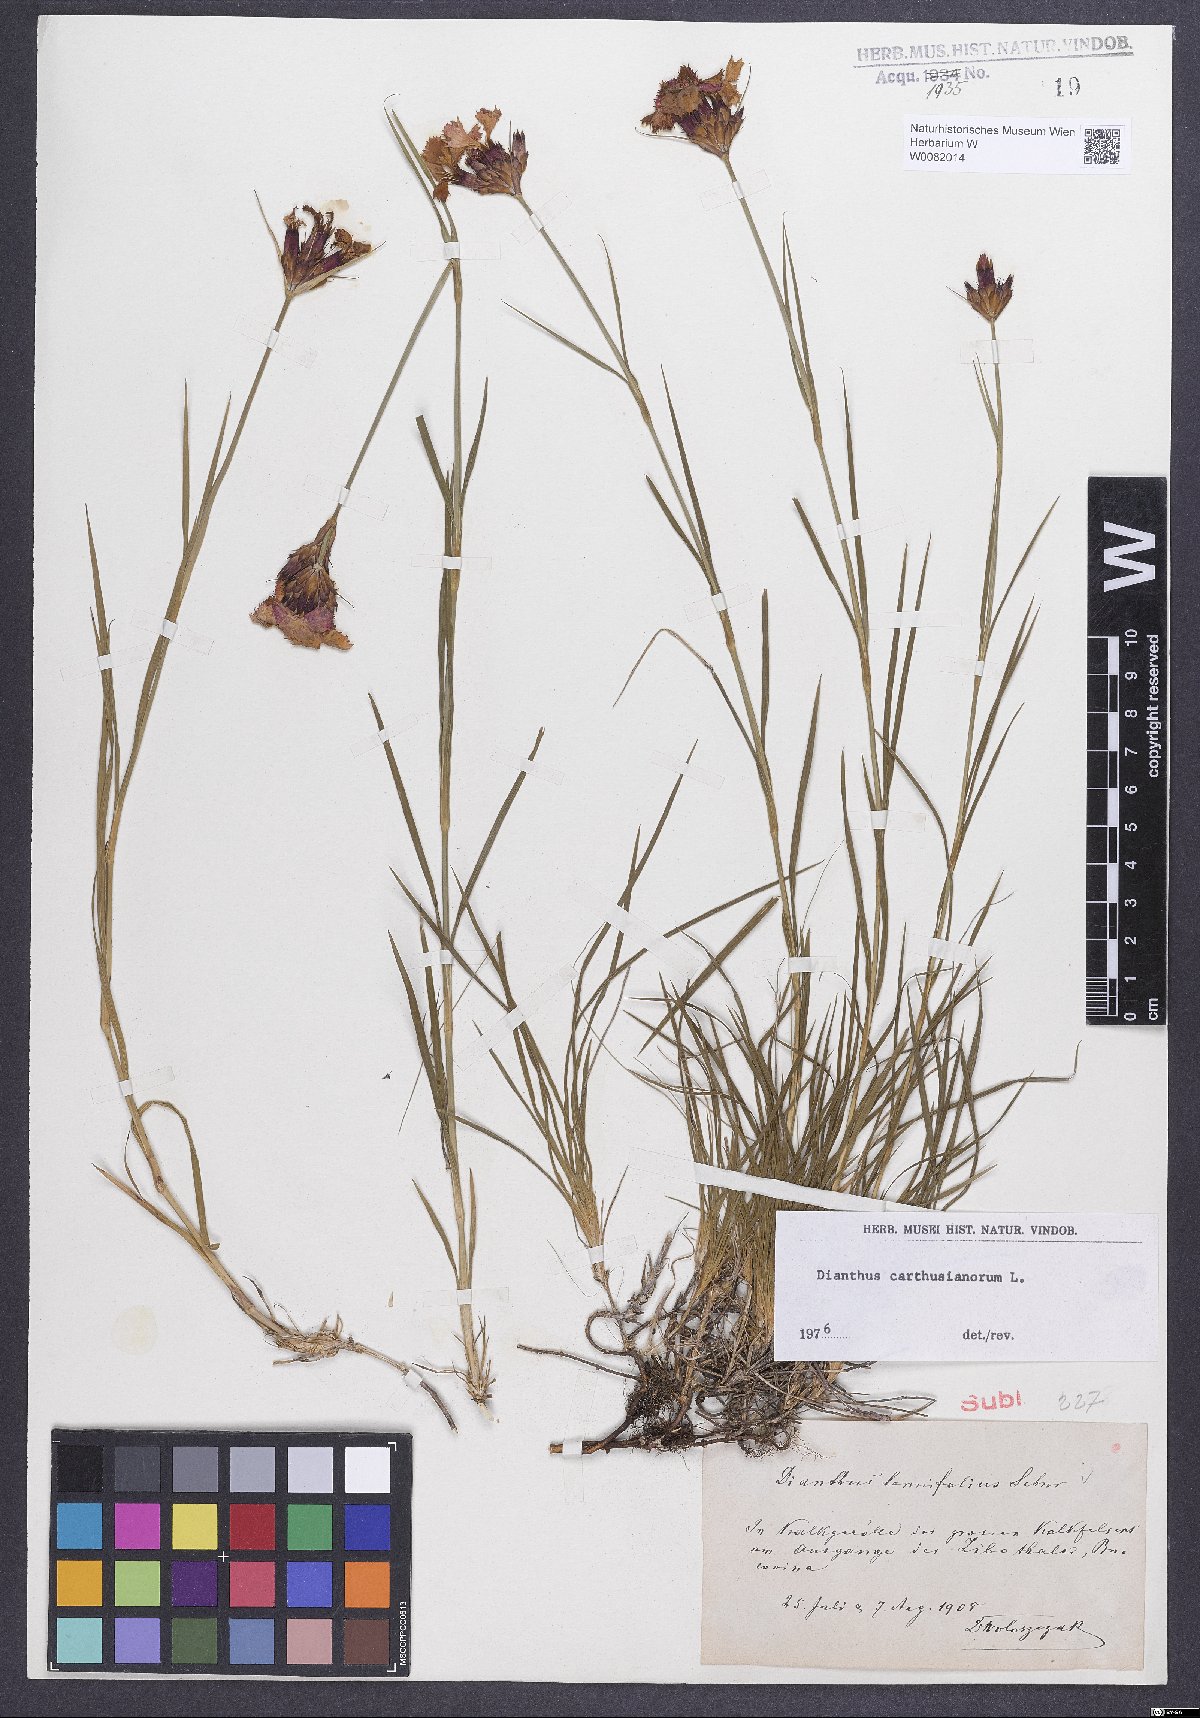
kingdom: Plantae
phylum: Tracheophyta
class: Magnoliopsida
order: Caryophyllales
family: Caryophyllaceae
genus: Dianthus
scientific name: Dianthus carthusianorum
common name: Carthusian pink
